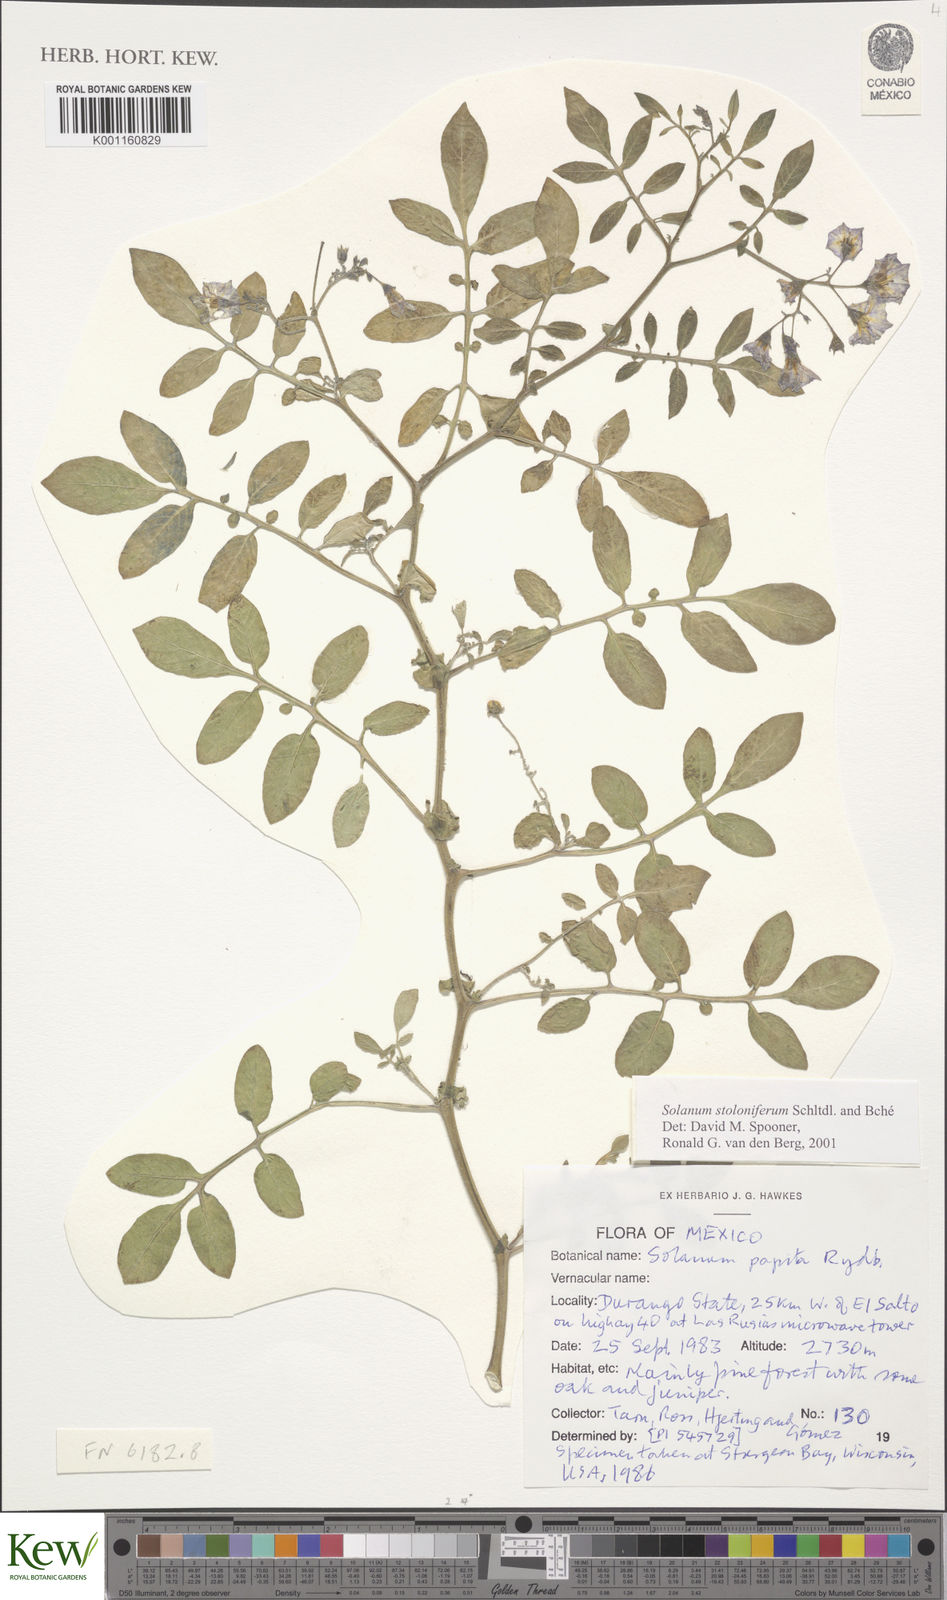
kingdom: Plantae
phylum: Tracheophyta
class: Magnoliopsida
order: Solanales
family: Solanaceae
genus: Solanum
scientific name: Solanum stoloniferum
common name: Fendler's nighshade
